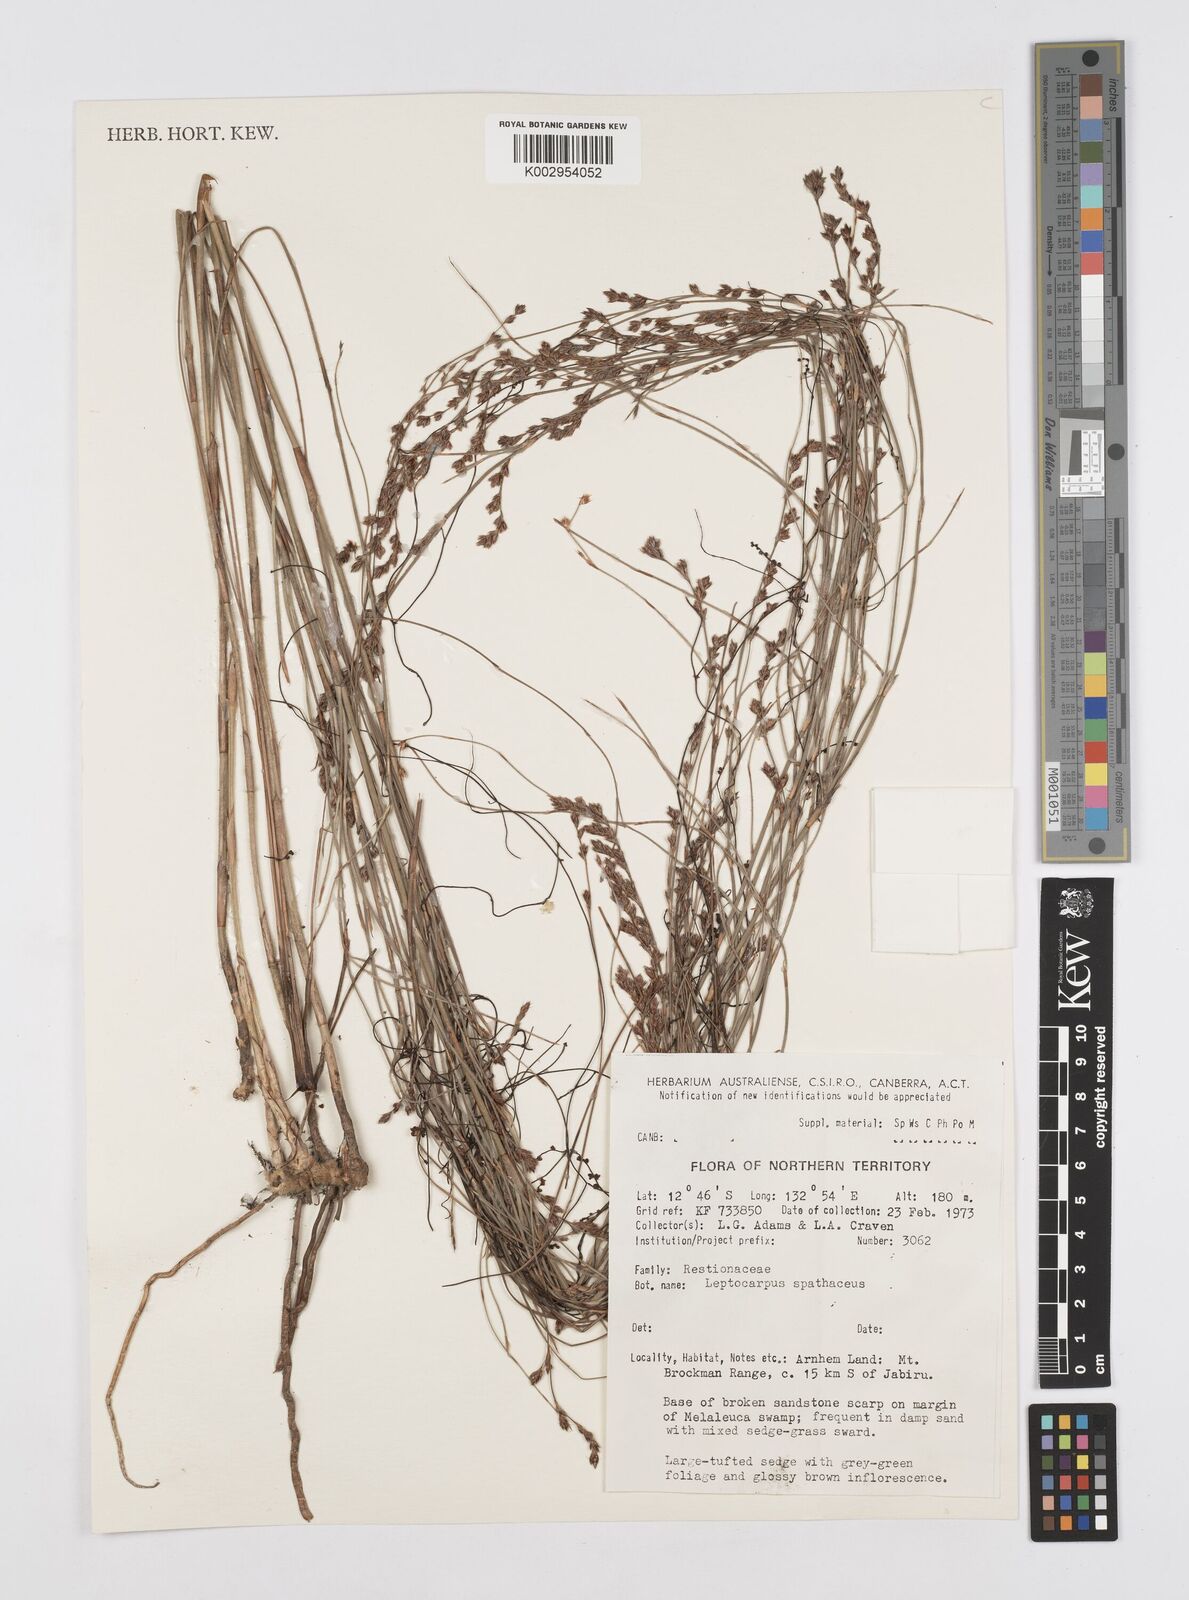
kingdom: Plantae
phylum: Tracheophyta
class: Liliopsida
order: Poales
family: Restionaceae
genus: Dapsilanthus
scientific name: Dapsilanthus spathaceus
